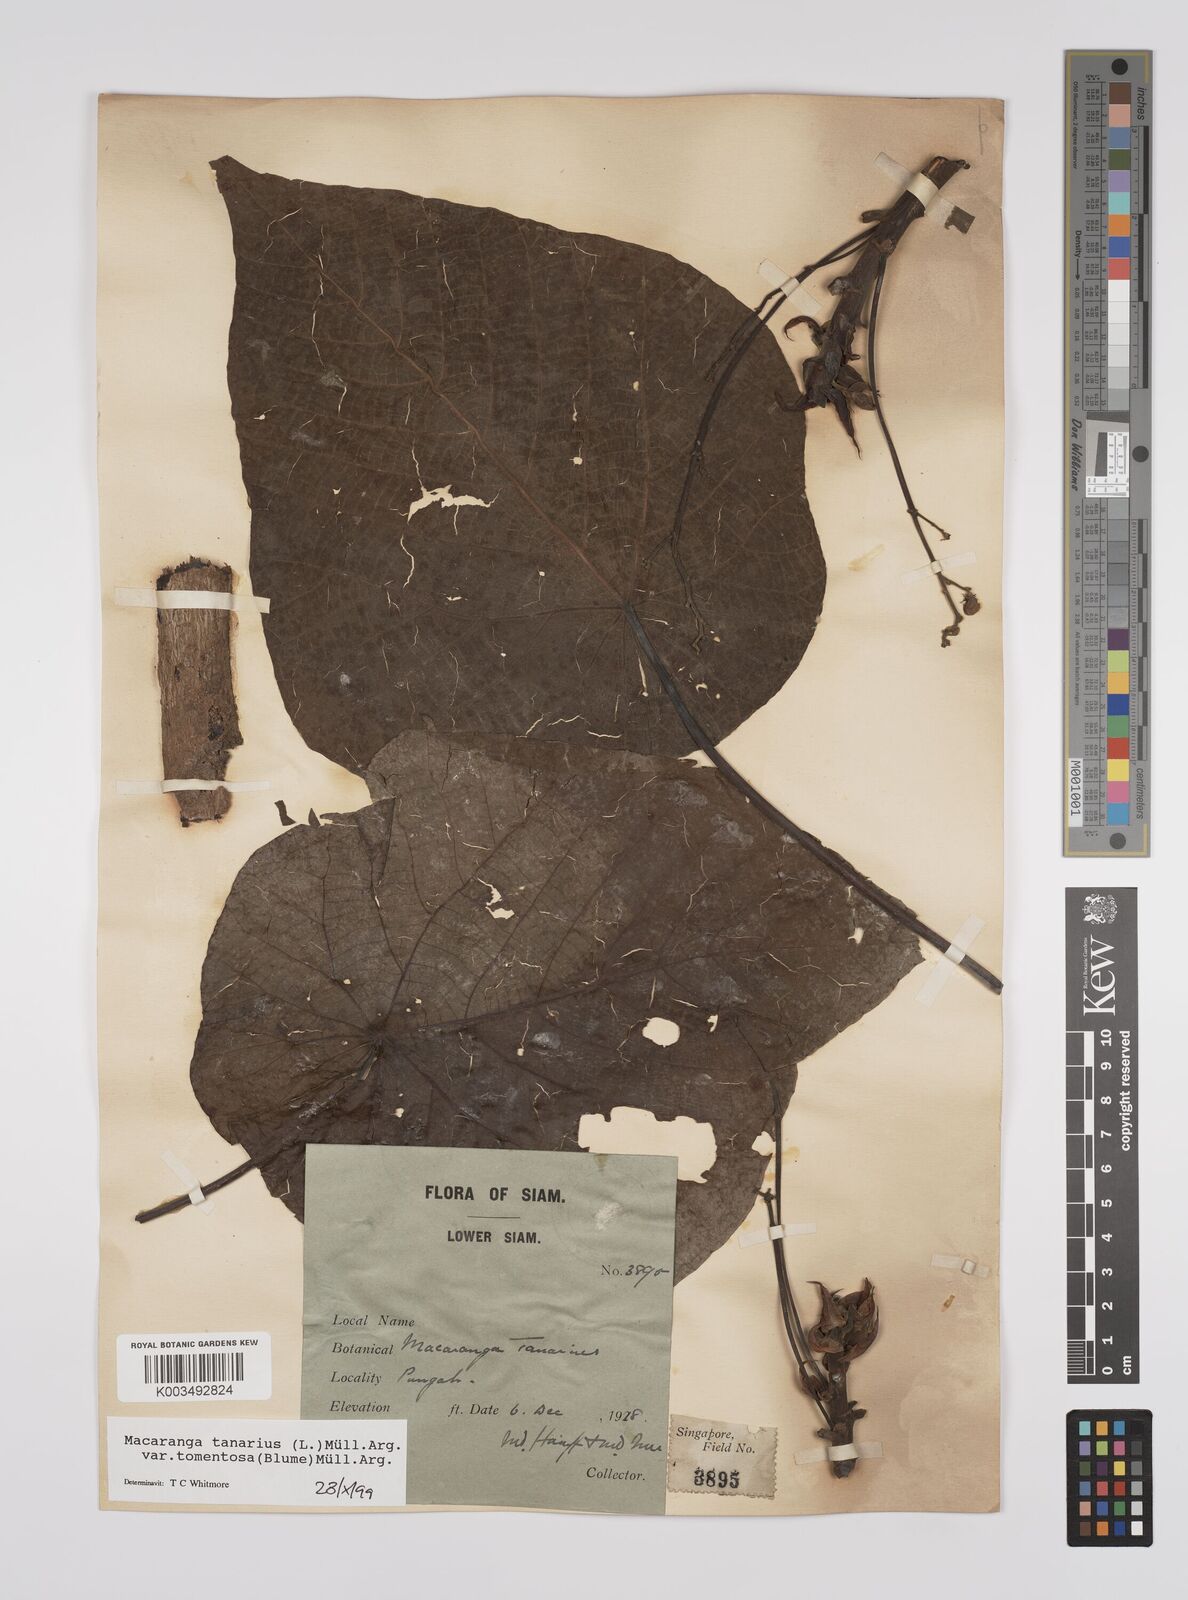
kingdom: Plantae
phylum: Tracheophyta
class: Magnoliopsida
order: Malpighiales
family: Euphorbiaceae
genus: Macaranga
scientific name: Macaranga tanarius
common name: Parasol leaf tree
